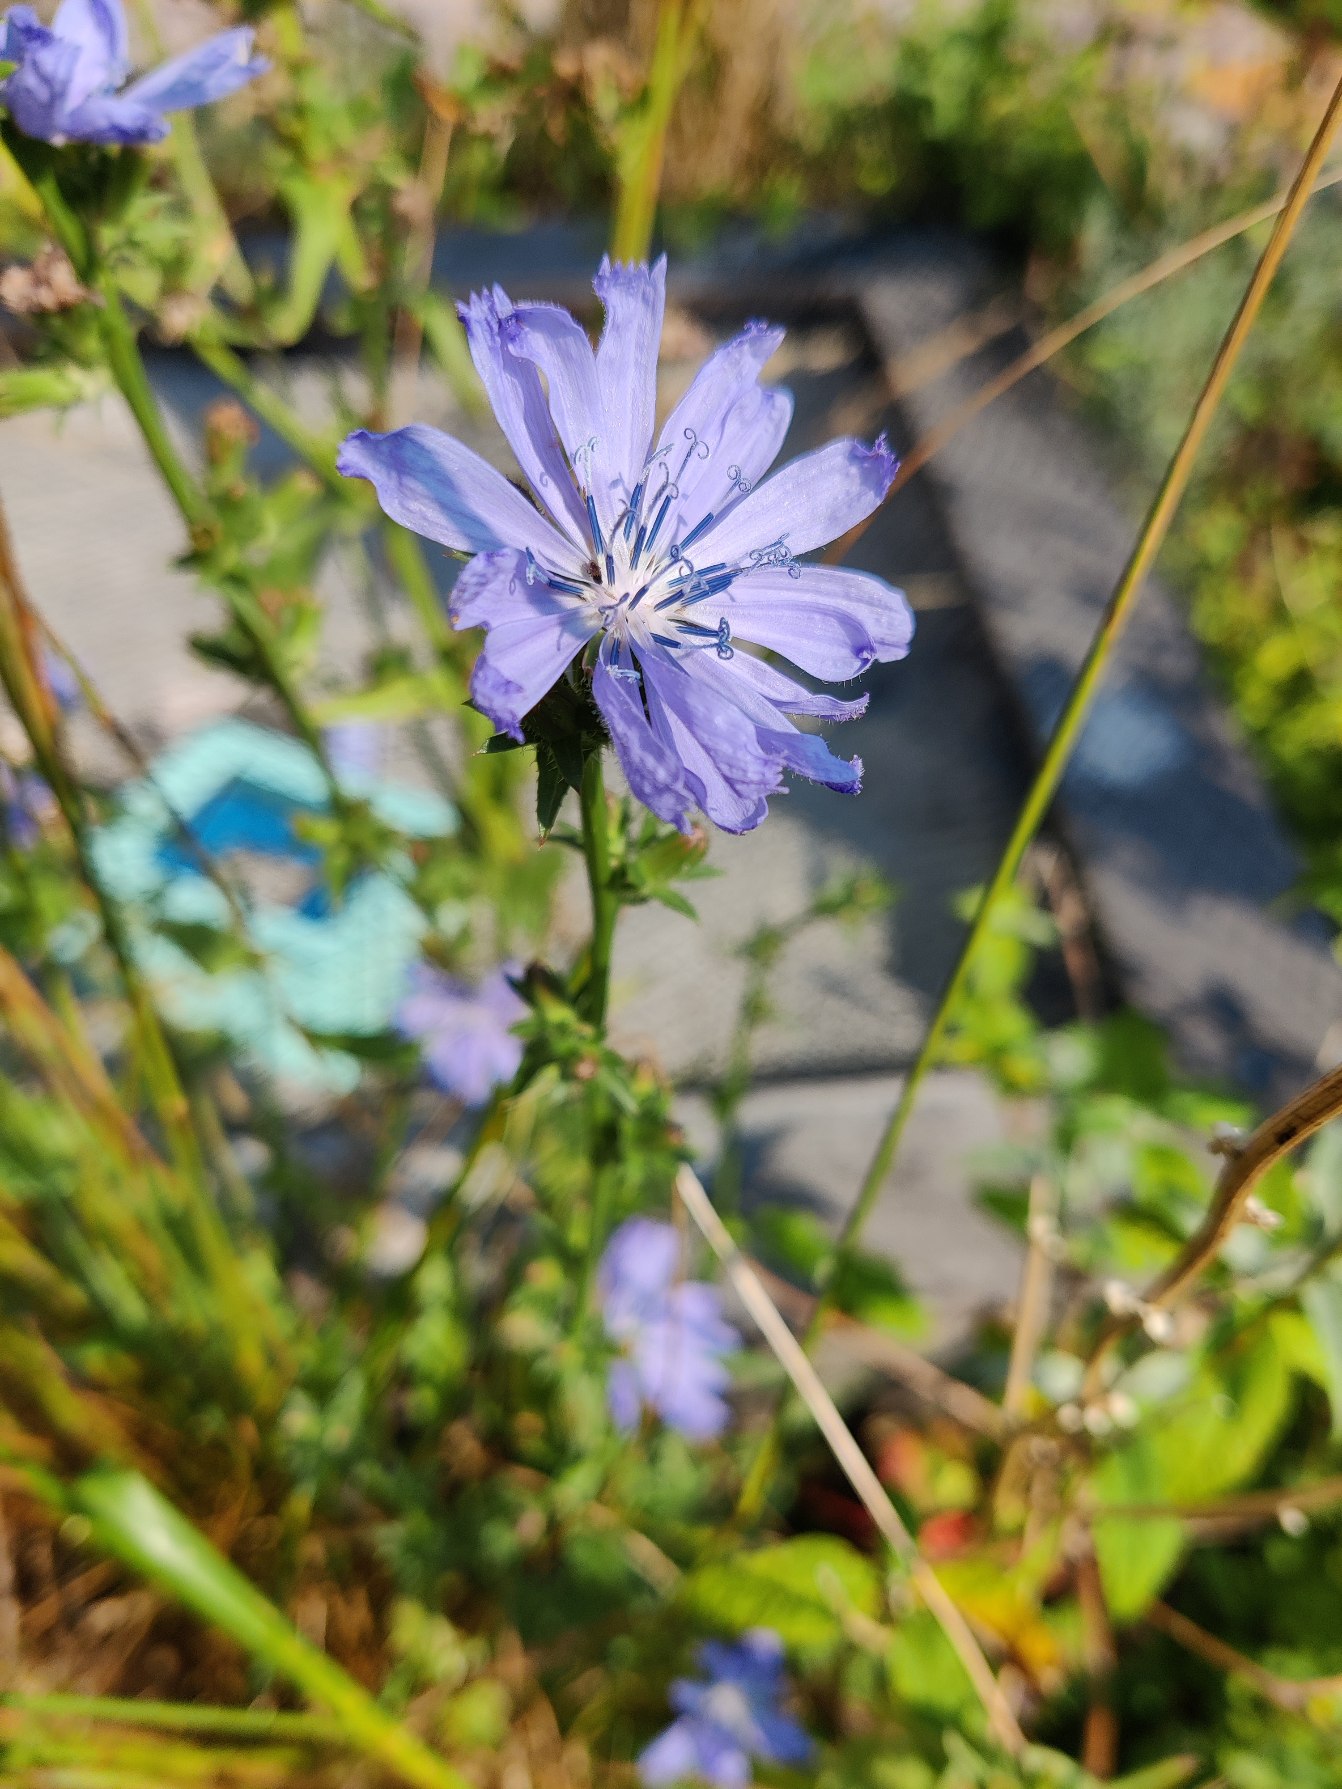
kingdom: Plantae
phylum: Tracheophyta
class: Magnoliopsida
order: Asterales
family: Asteraceae
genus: Cichorium
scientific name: Cichorium intybus
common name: Cikorie
